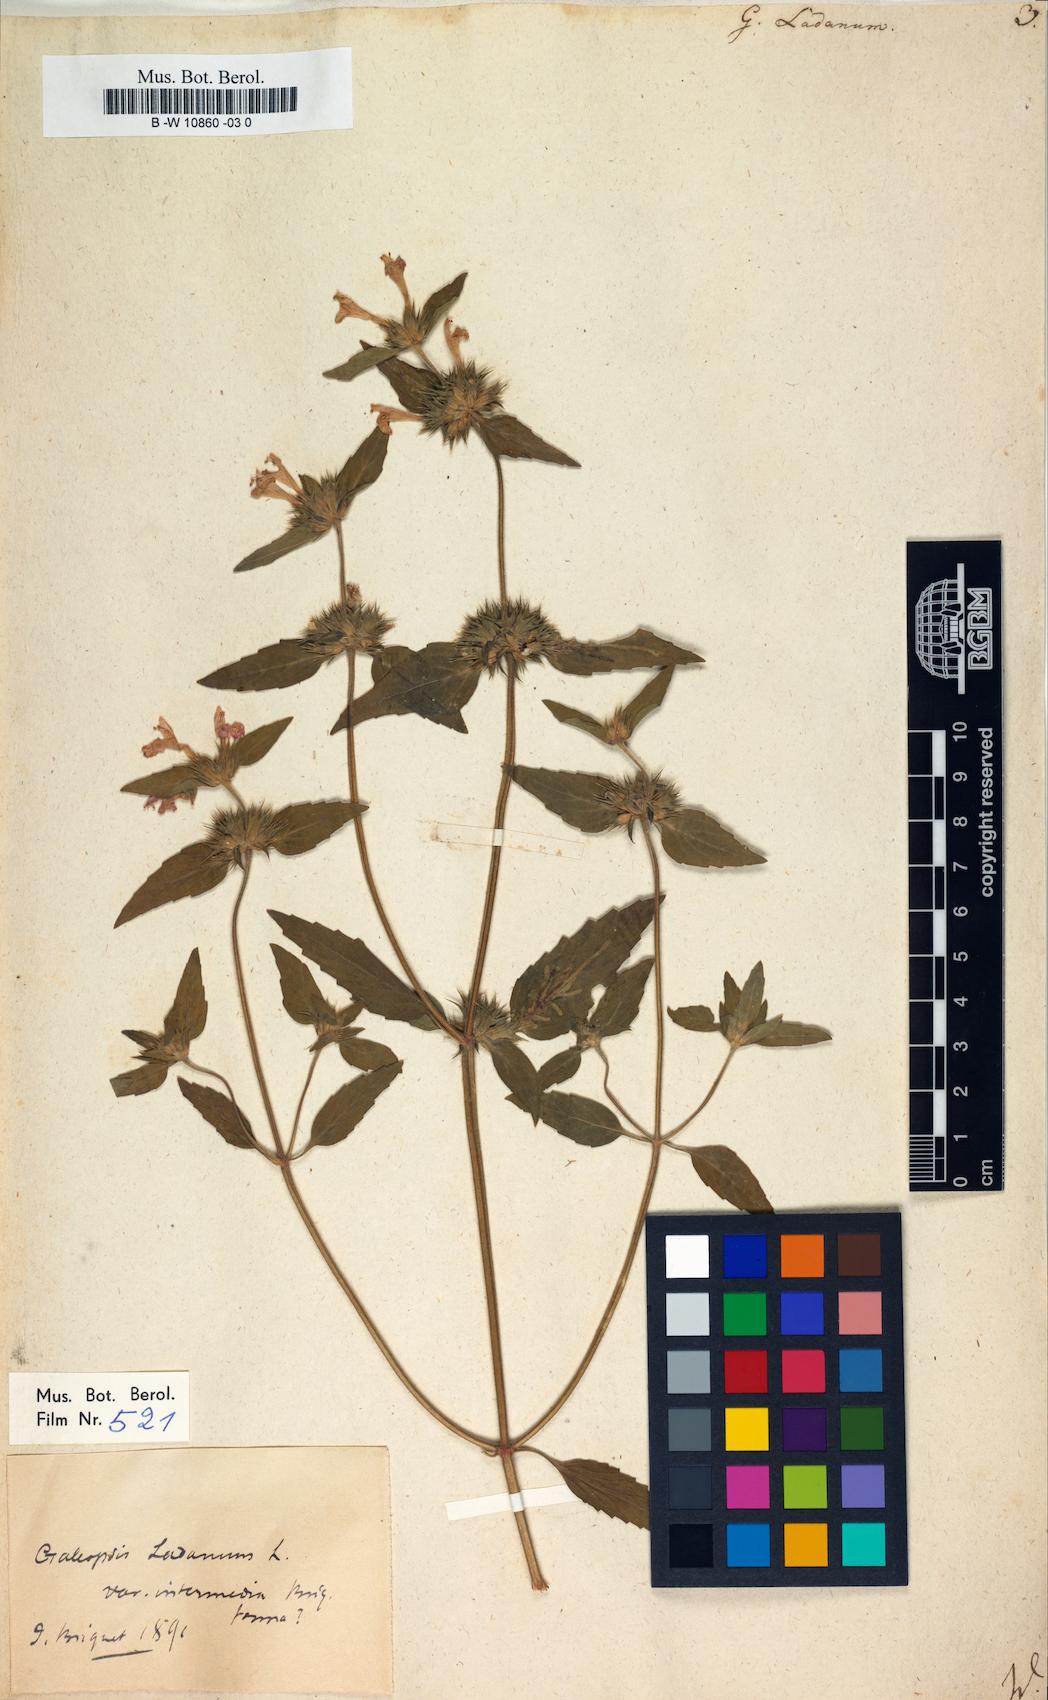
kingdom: Plantae
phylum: Tracheophyta
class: Magnoliopsida
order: Lamiales
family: Lamiaceae
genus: Galeopsis
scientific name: Galeopsis ladanum
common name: Broad-leaved hemp-nettle
